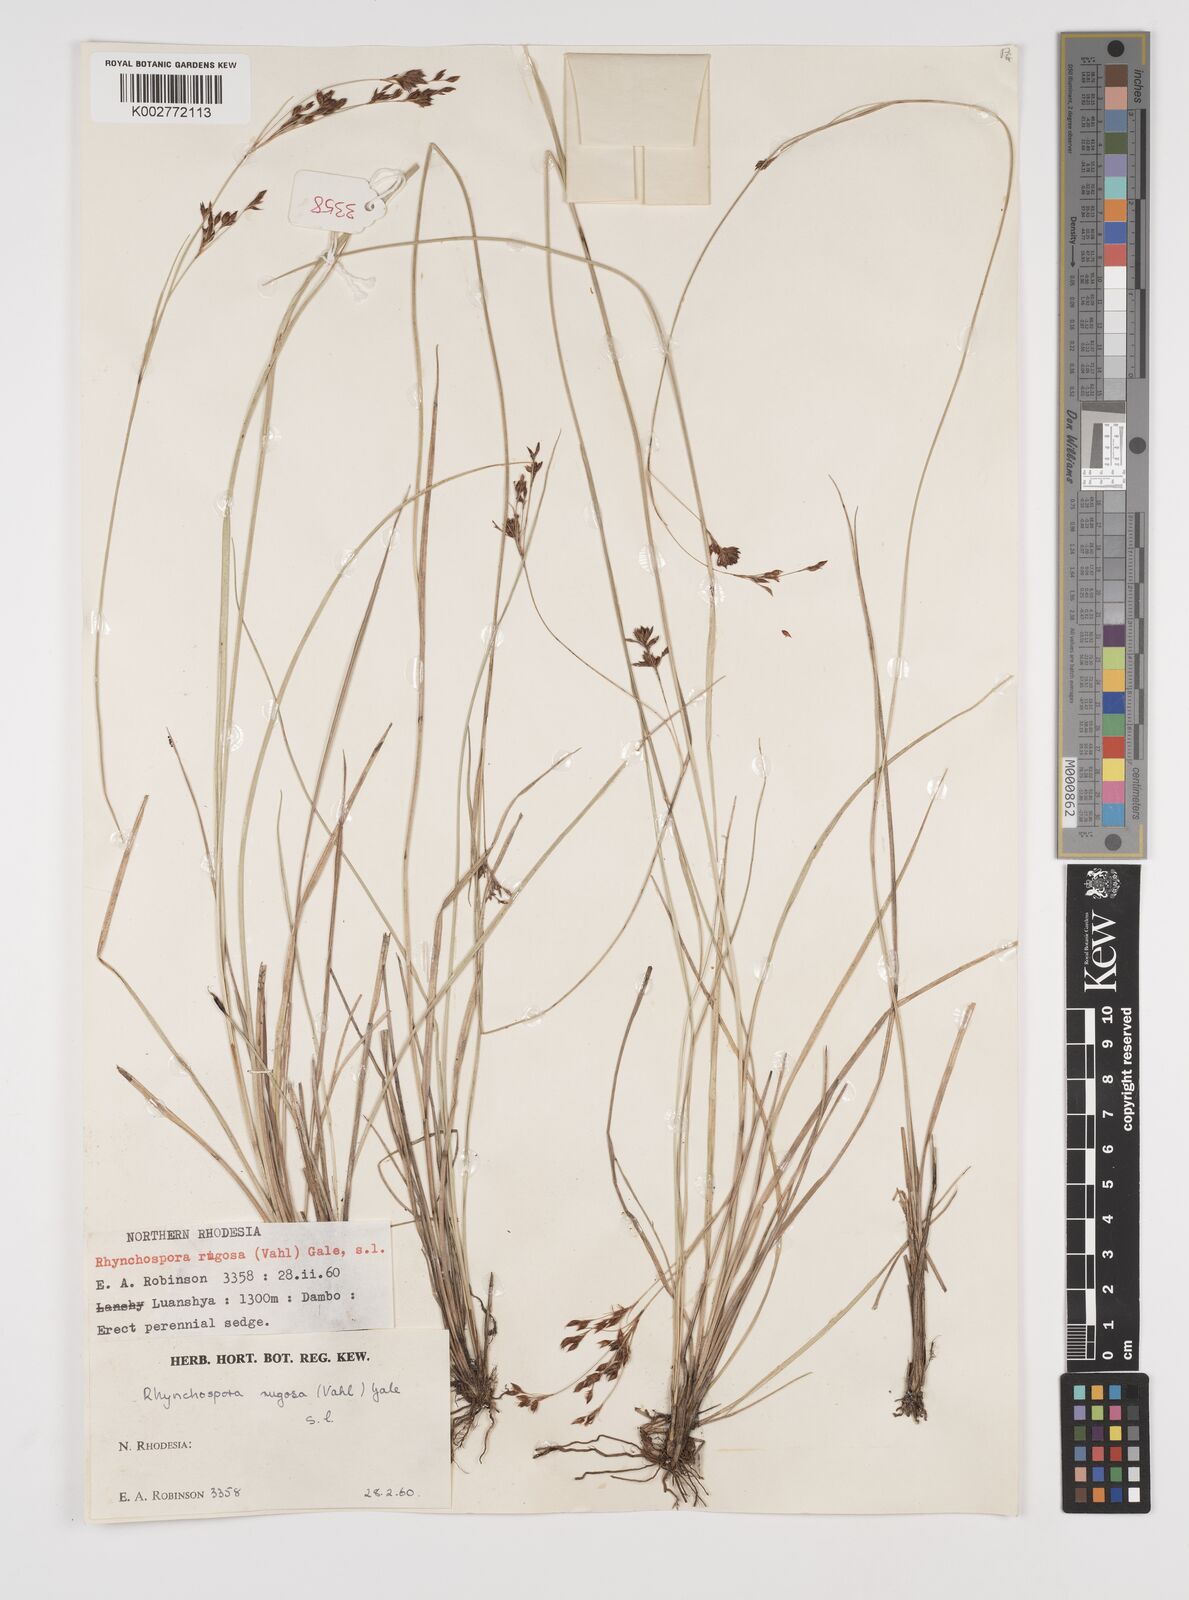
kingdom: Plantae
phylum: Tracheophyta
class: Liliopsida
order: Poales
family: Cyperaceae
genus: Rhynchospora
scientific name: Rhynchospora rugosa
